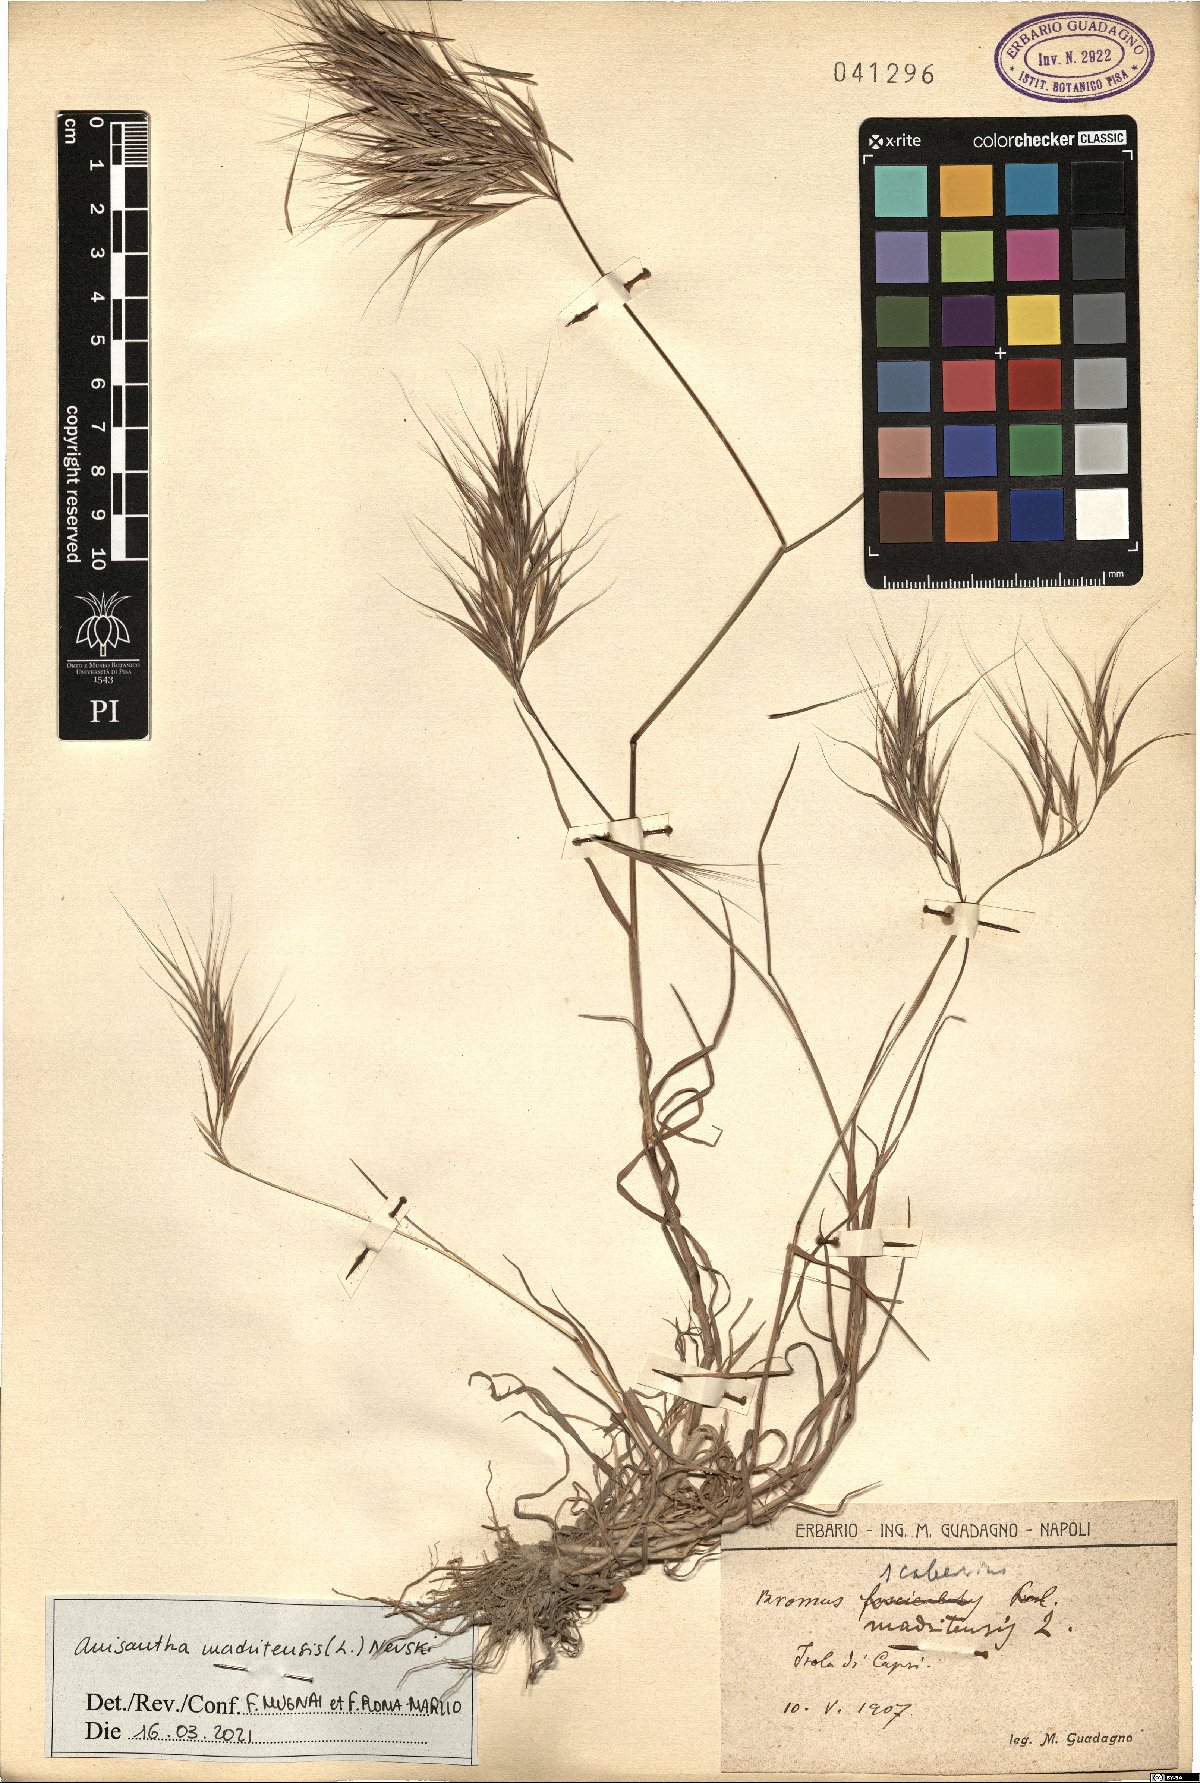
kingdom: Plantae
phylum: Tracheophyta
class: Liliopsida
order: Poales
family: Poaceae
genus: Bromus
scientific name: Bromus madritensis
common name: Compact brome
